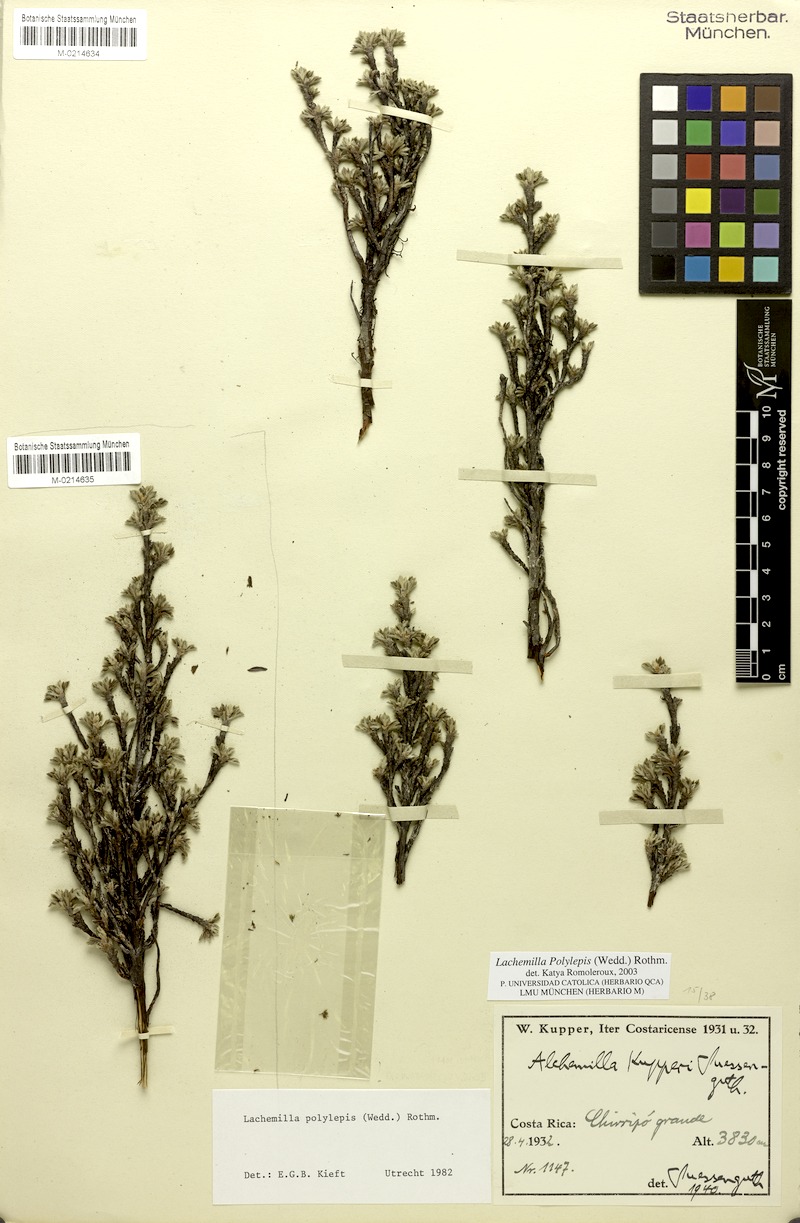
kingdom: Plantae
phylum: Tracheophyta
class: Magnoliopsida
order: Rosales
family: Rosaceae
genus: Lachemilla
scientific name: Lachemilla polylepis
